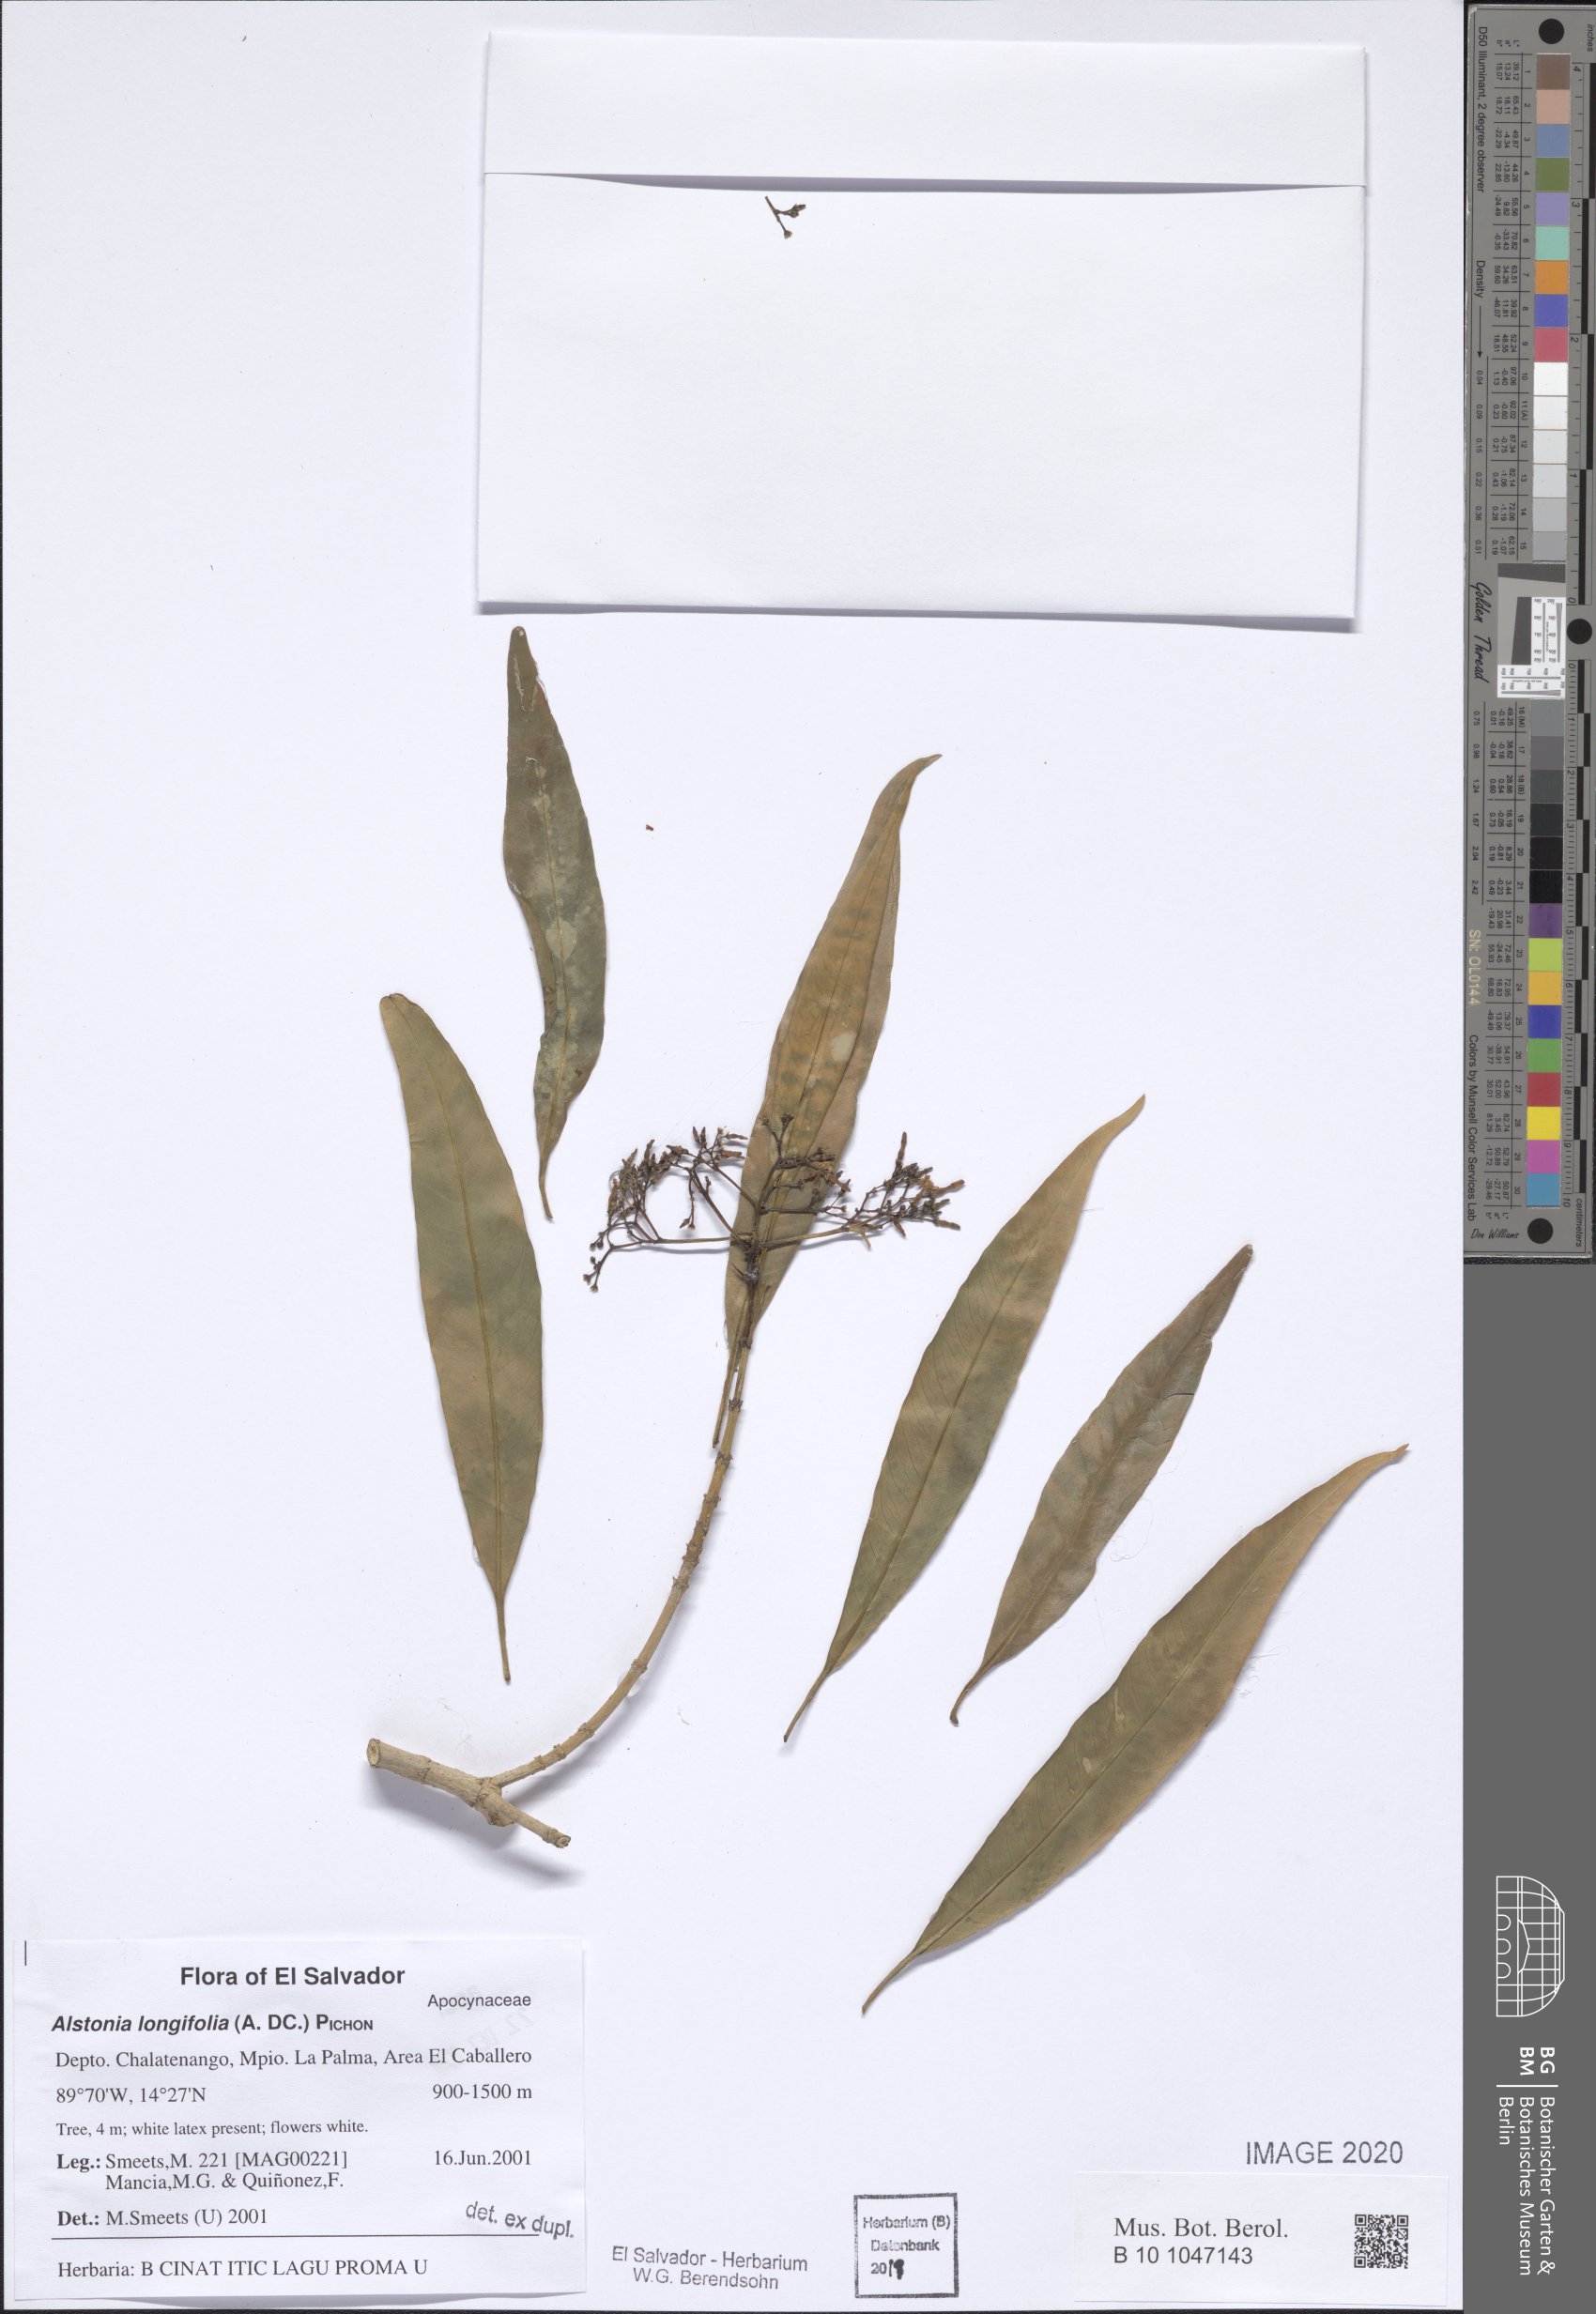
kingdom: Plantae
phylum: Tracheophyta
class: Magnoliopsida
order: Gentianales
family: Apocynaceae
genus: Tonduzia
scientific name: Tonduzia longifolia
